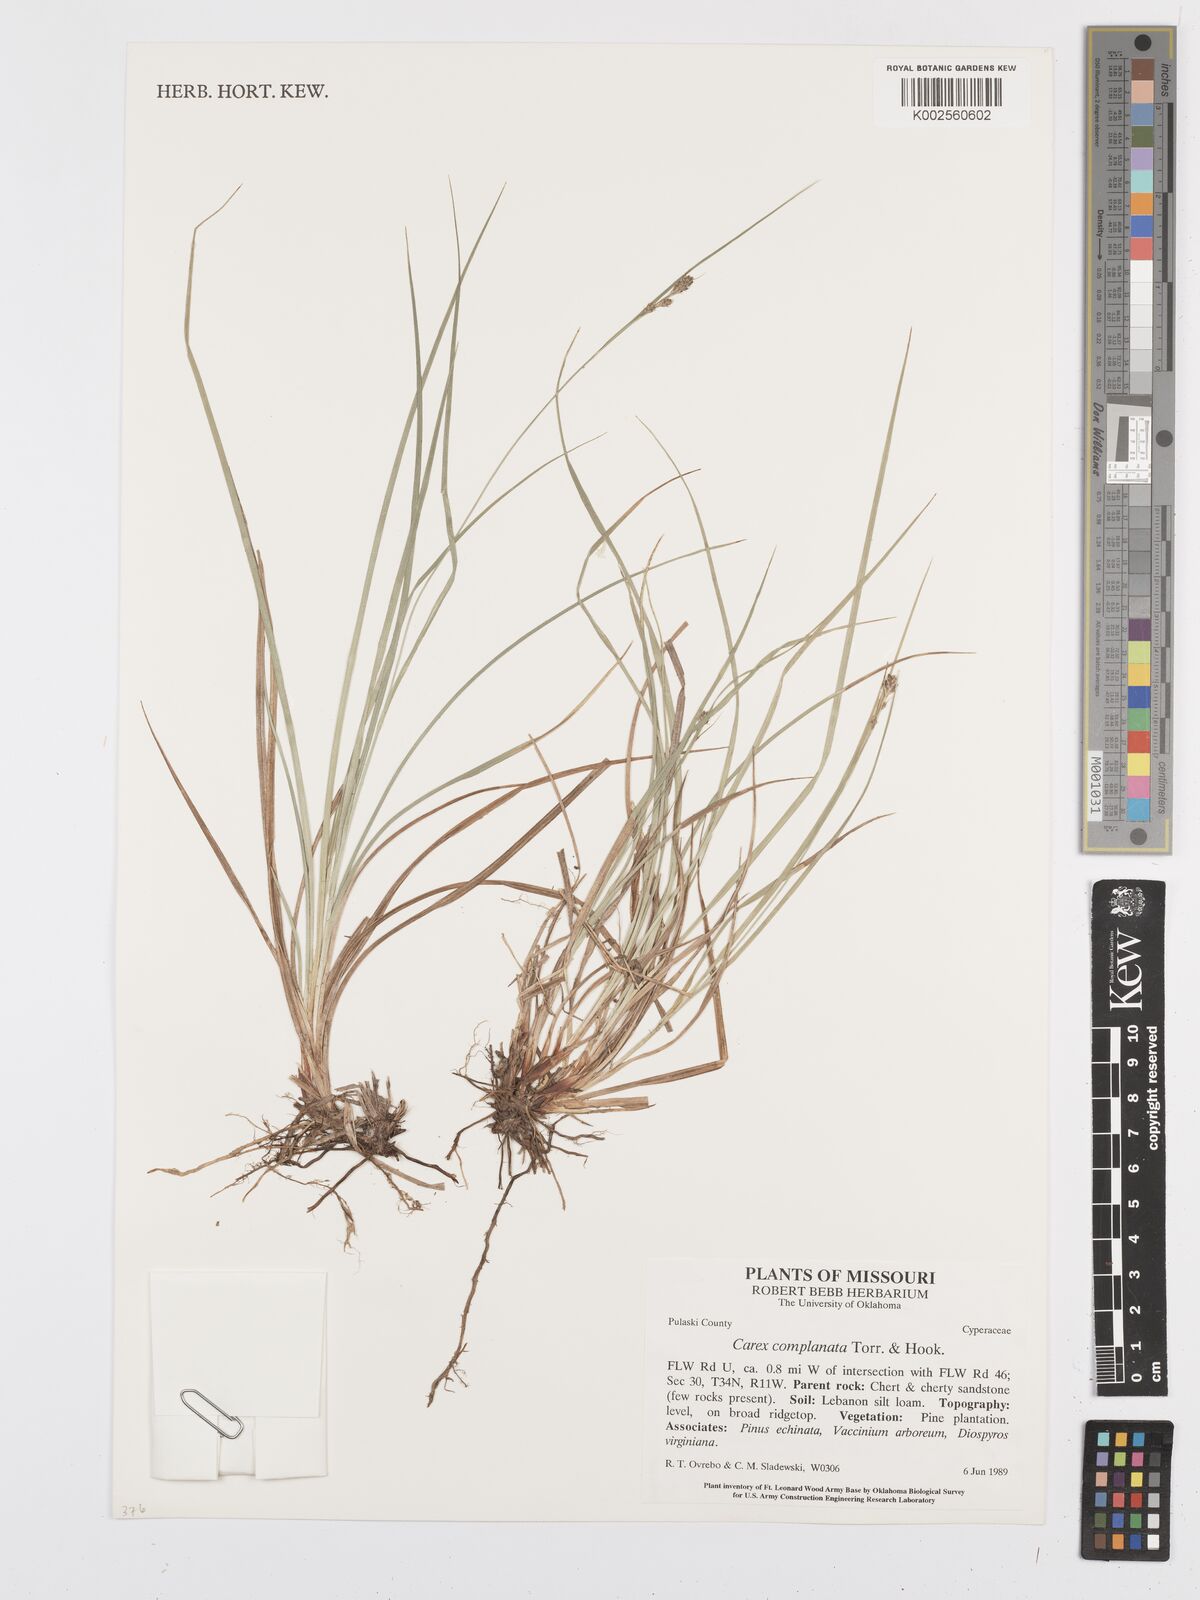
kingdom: Plantae
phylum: Tracheophyta
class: Liliopsida
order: Poales
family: Cyperaceae
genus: Carex
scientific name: Carex complanata
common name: Hirsute sedge
